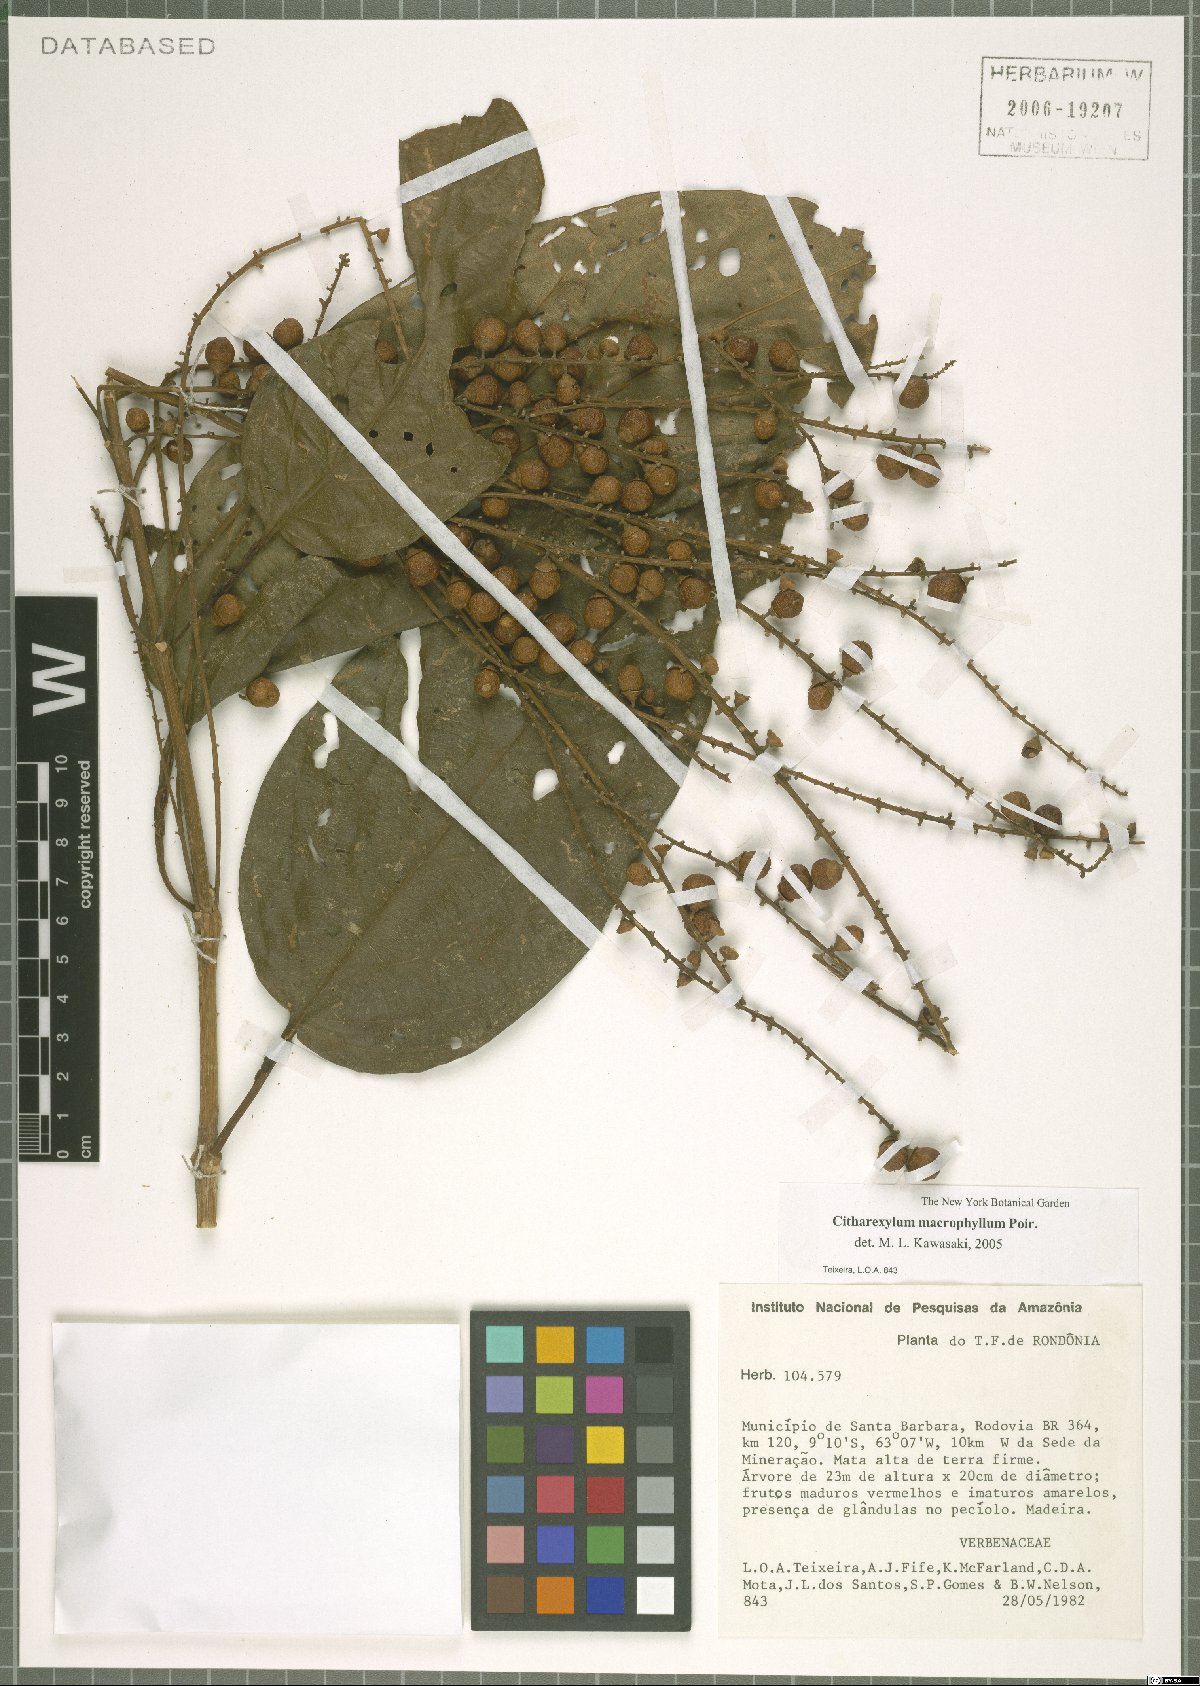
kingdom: Plantae
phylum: Tracheophyta
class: Magnoliopsida
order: Lamiales
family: Verbenaceae
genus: Citharexylum
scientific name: Citharexylum spinosum
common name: Fiddlewood
